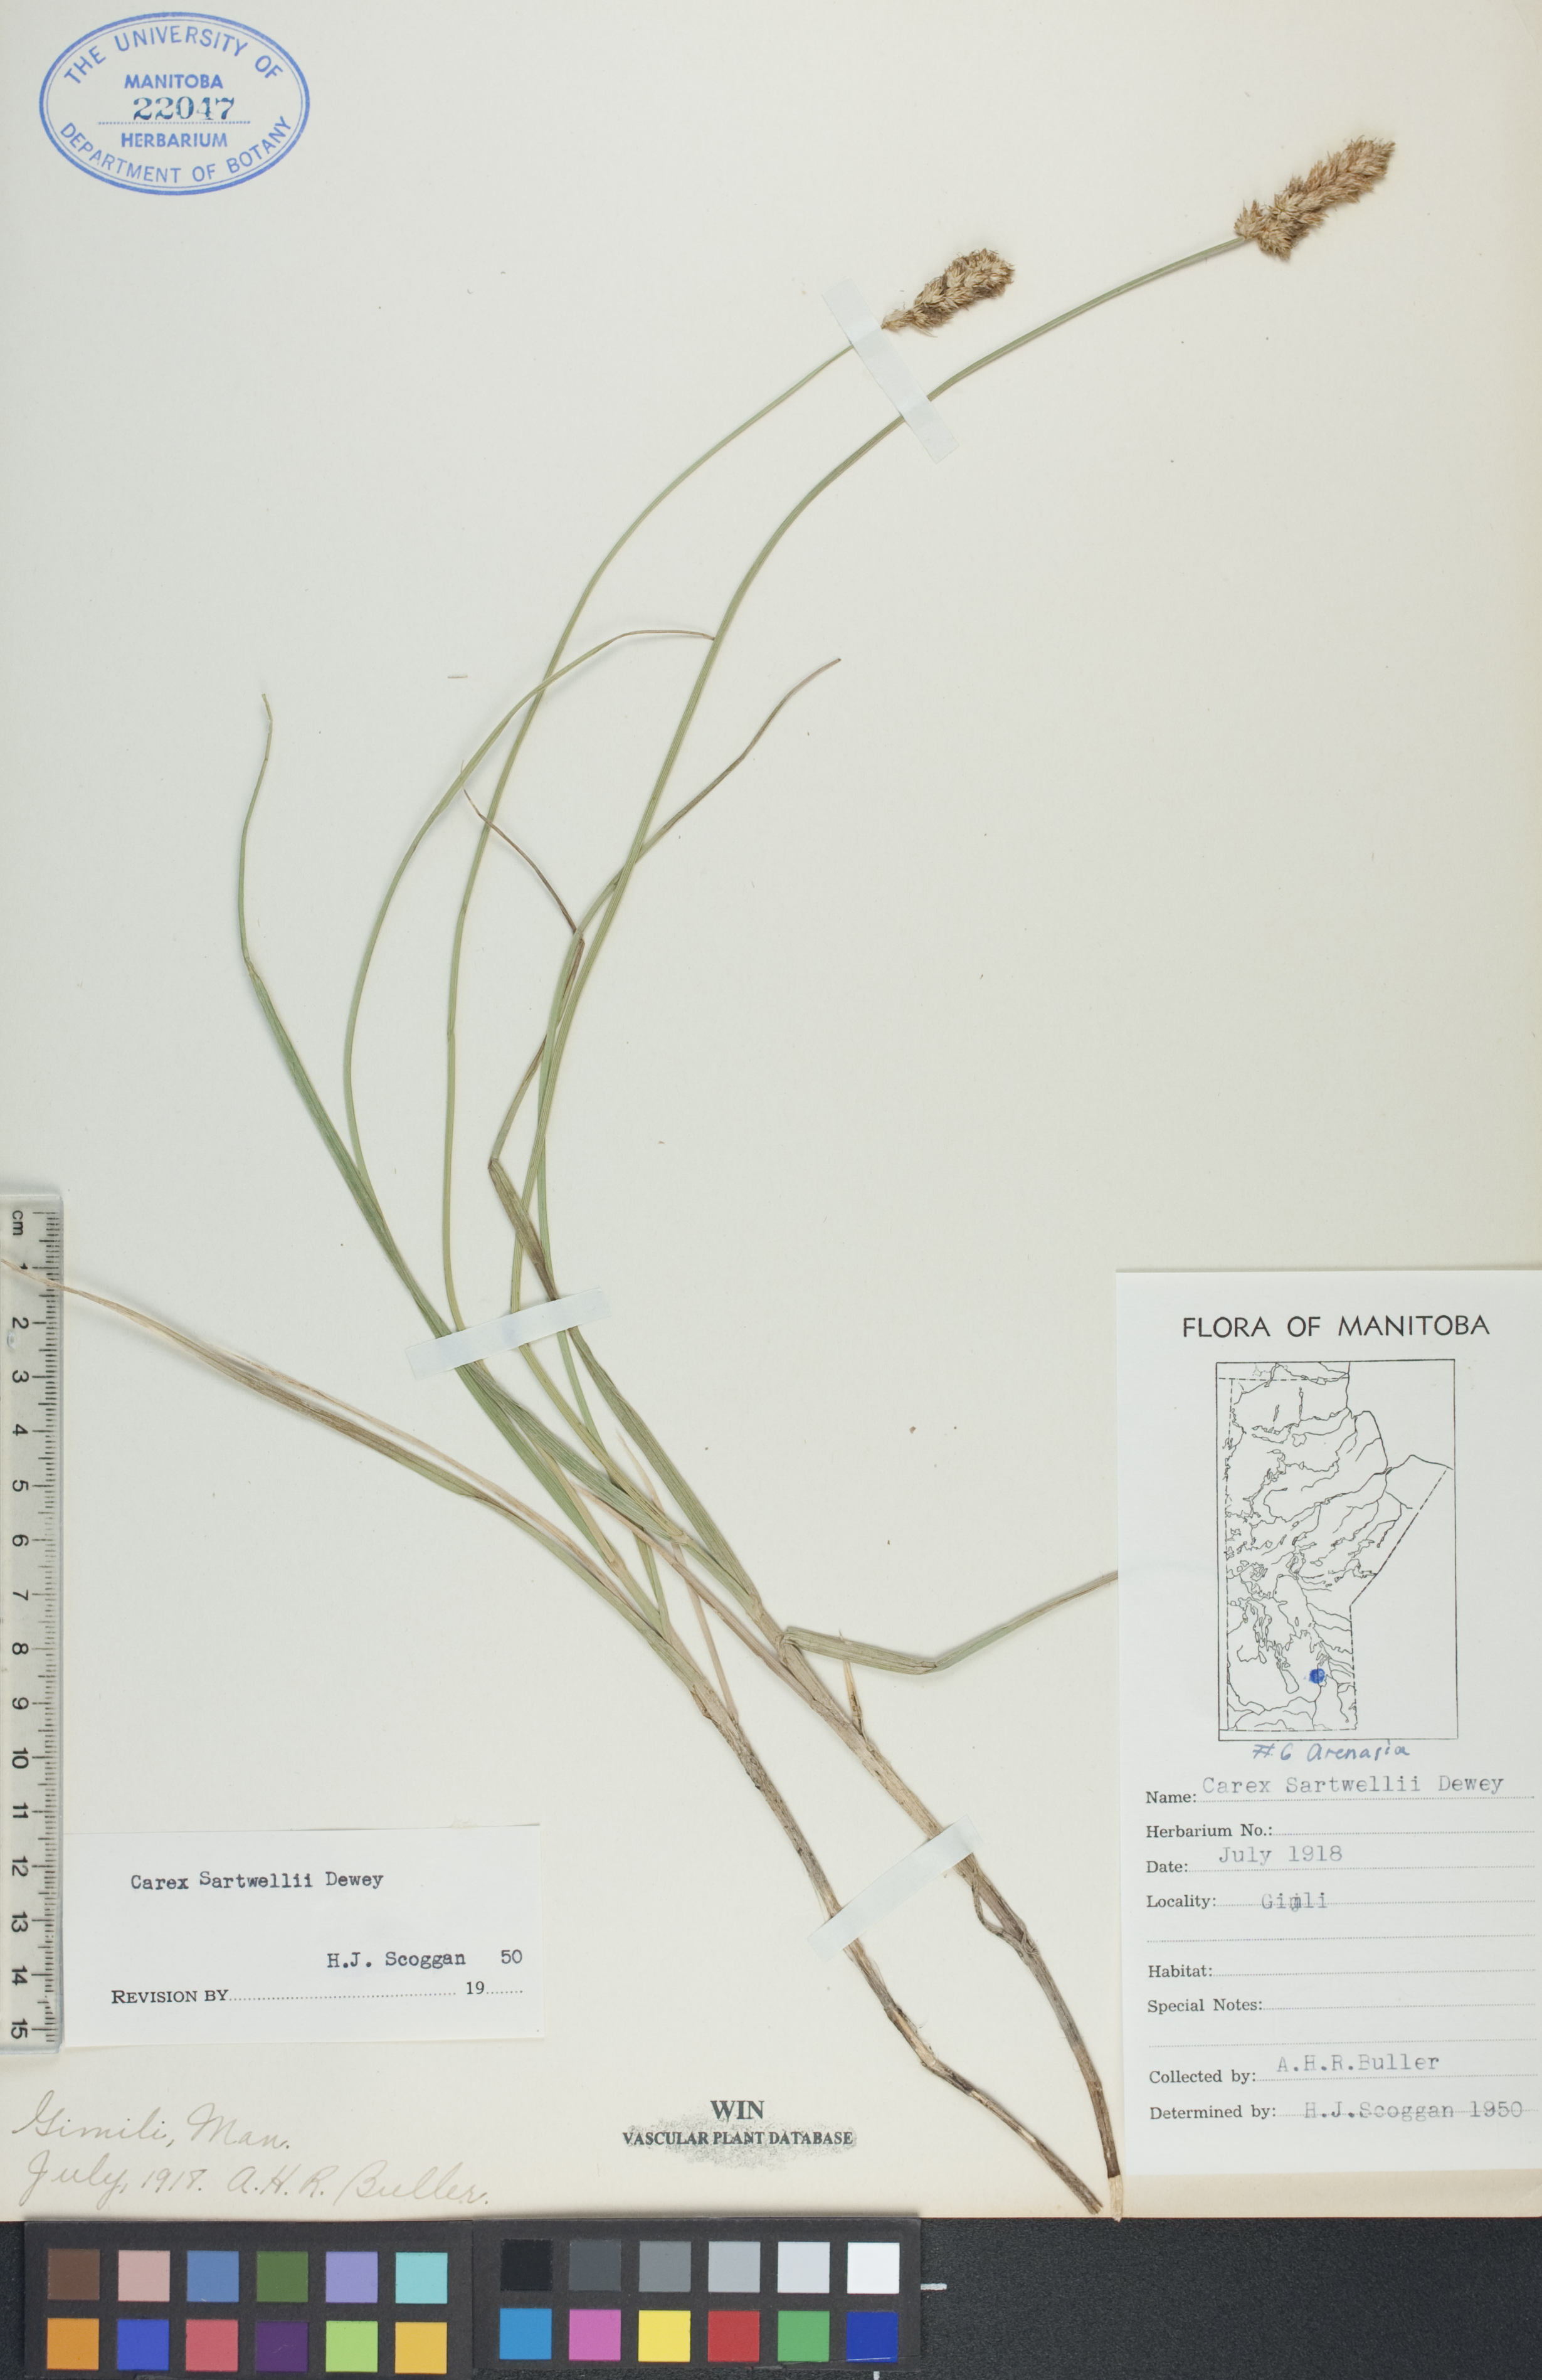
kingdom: Plantae
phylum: Tracheophyta
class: Liliopsida
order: Poales
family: Cyperaceae
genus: Carex
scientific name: Carex sartwellii
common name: Sartwell's sedge
